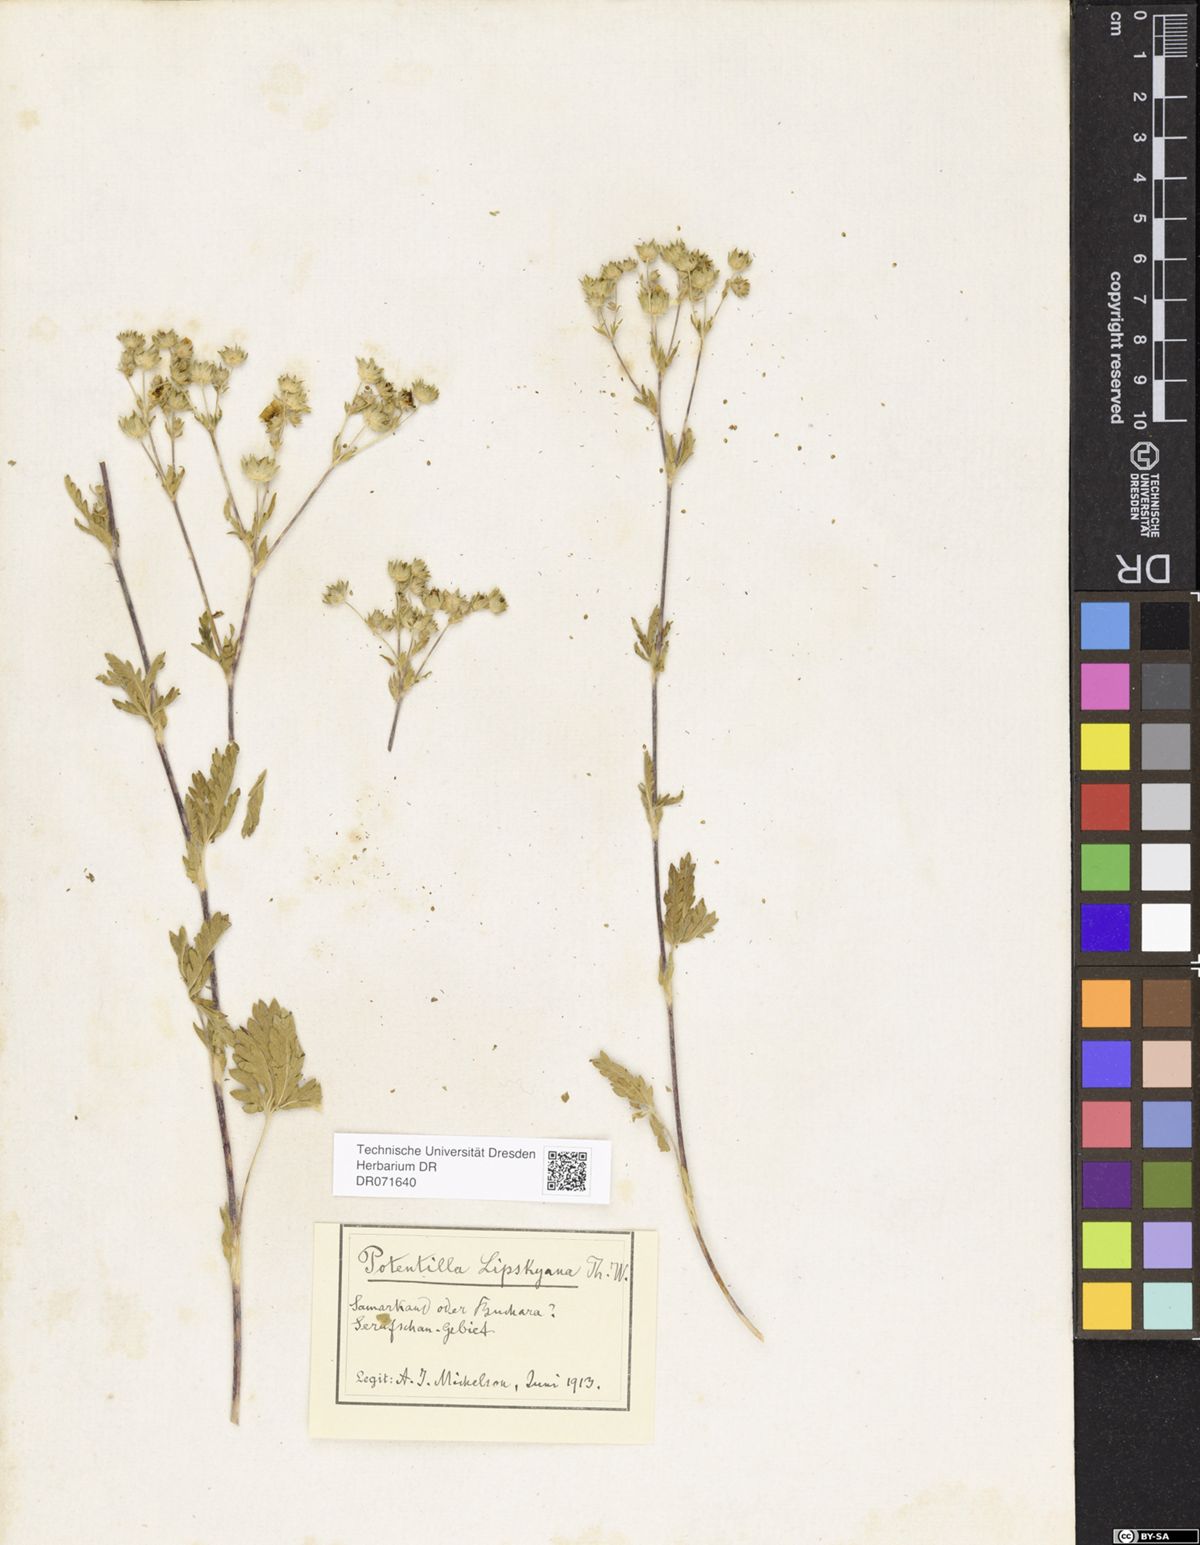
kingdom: Plantae
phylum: Tracheophyta
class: Magnoliopsida
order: Rosales
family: Rosaceae
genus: Potentilla
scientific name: Potentilla mollissima
